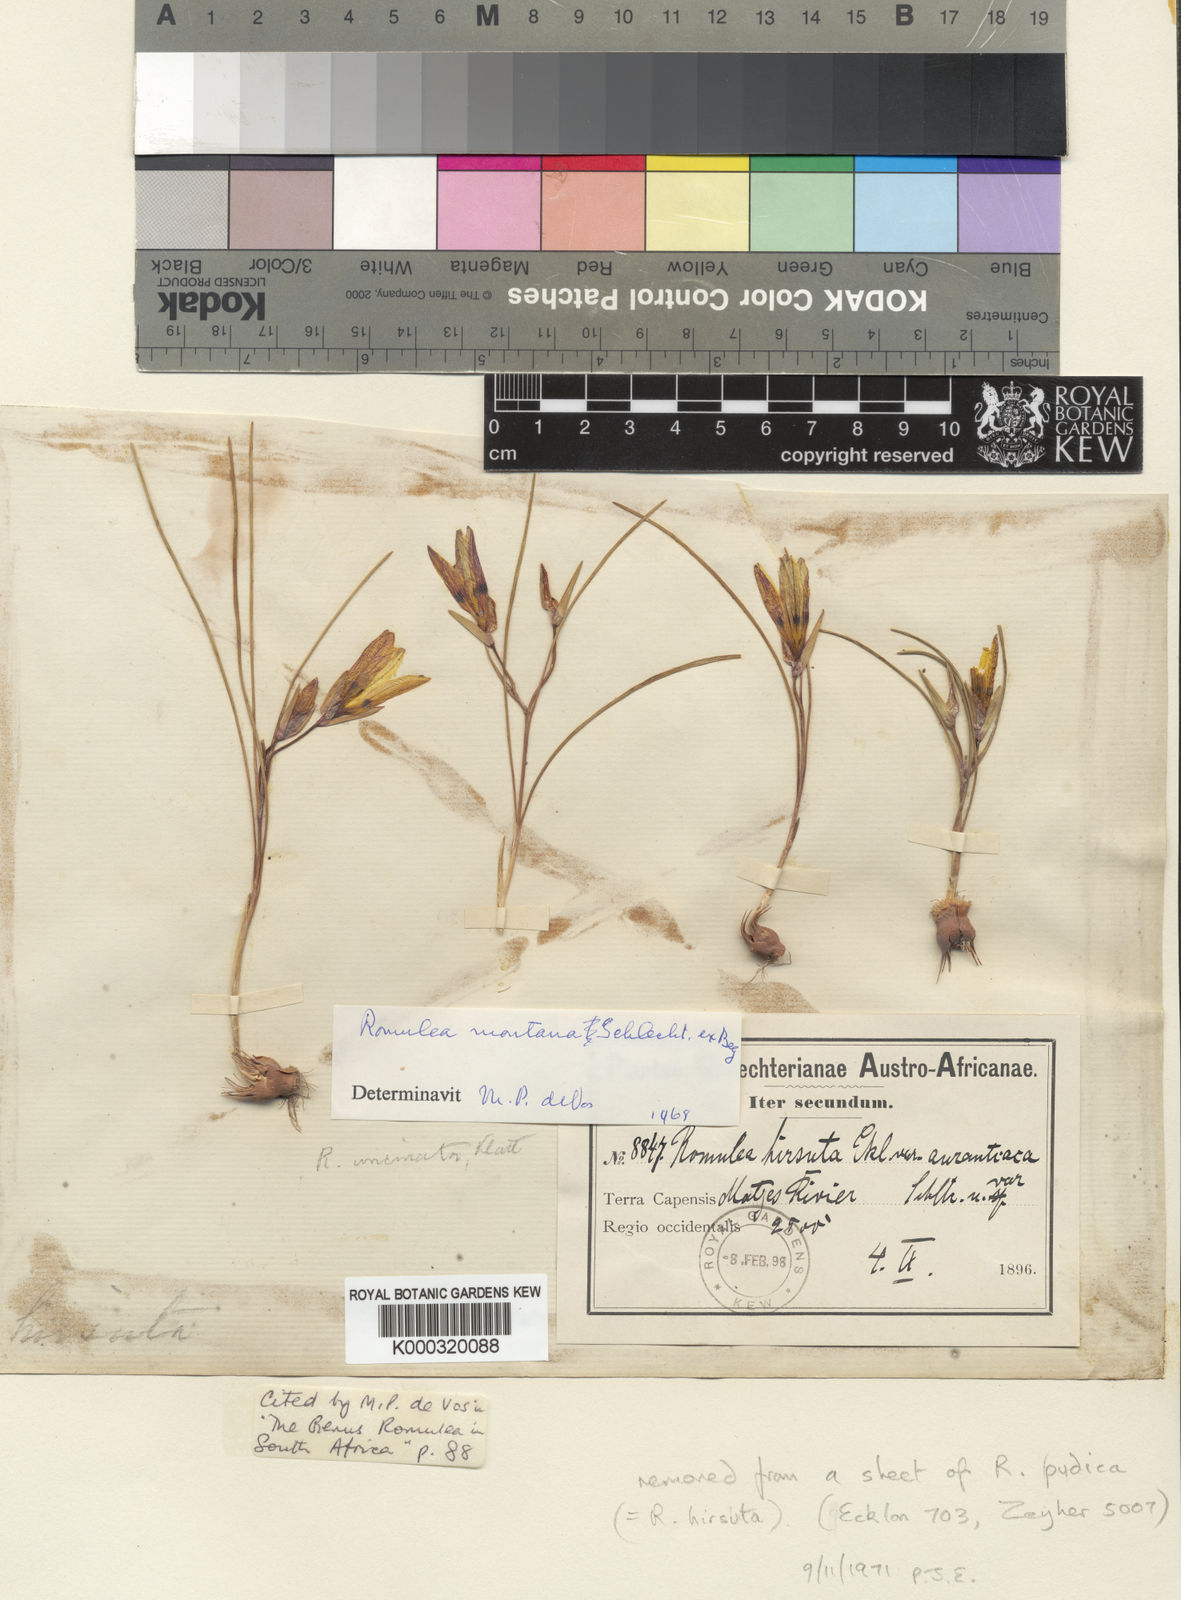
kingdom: Plantae
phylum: Tracheophyta
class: Liliopsida
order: Asparagales
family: Iridaceae
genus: Romulea
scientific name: Romulea
